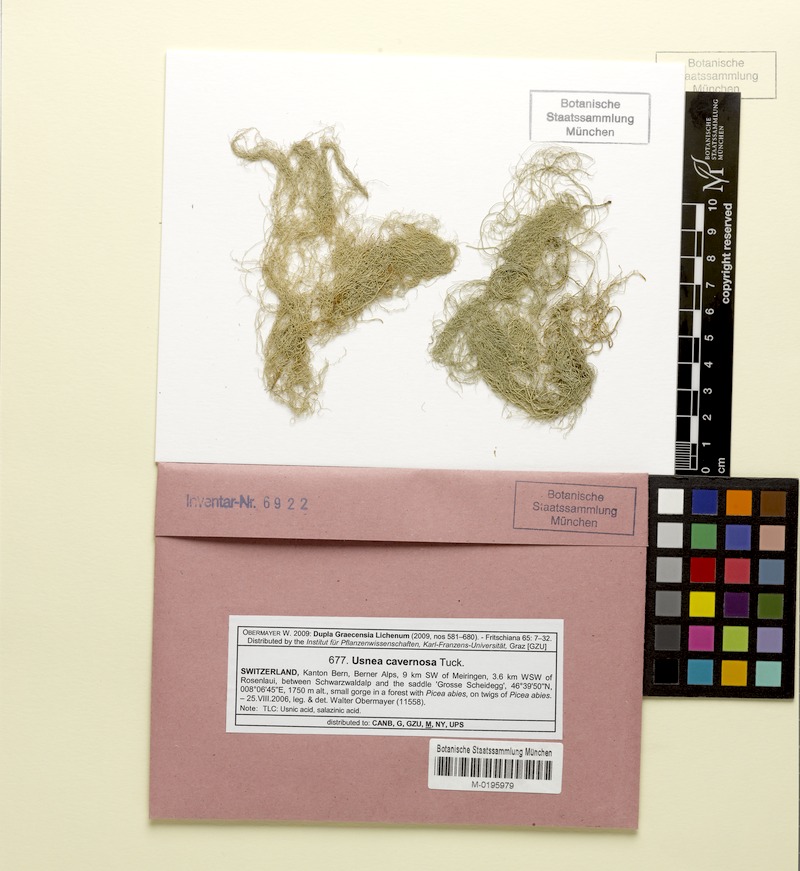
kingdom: Fungi
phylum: Ascomycota
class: Lecanoromycetes
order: Lecanorales
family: Parmeliaceae
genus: Usnea
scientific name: Usnea cavernosa
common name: Pitted beard lichen
